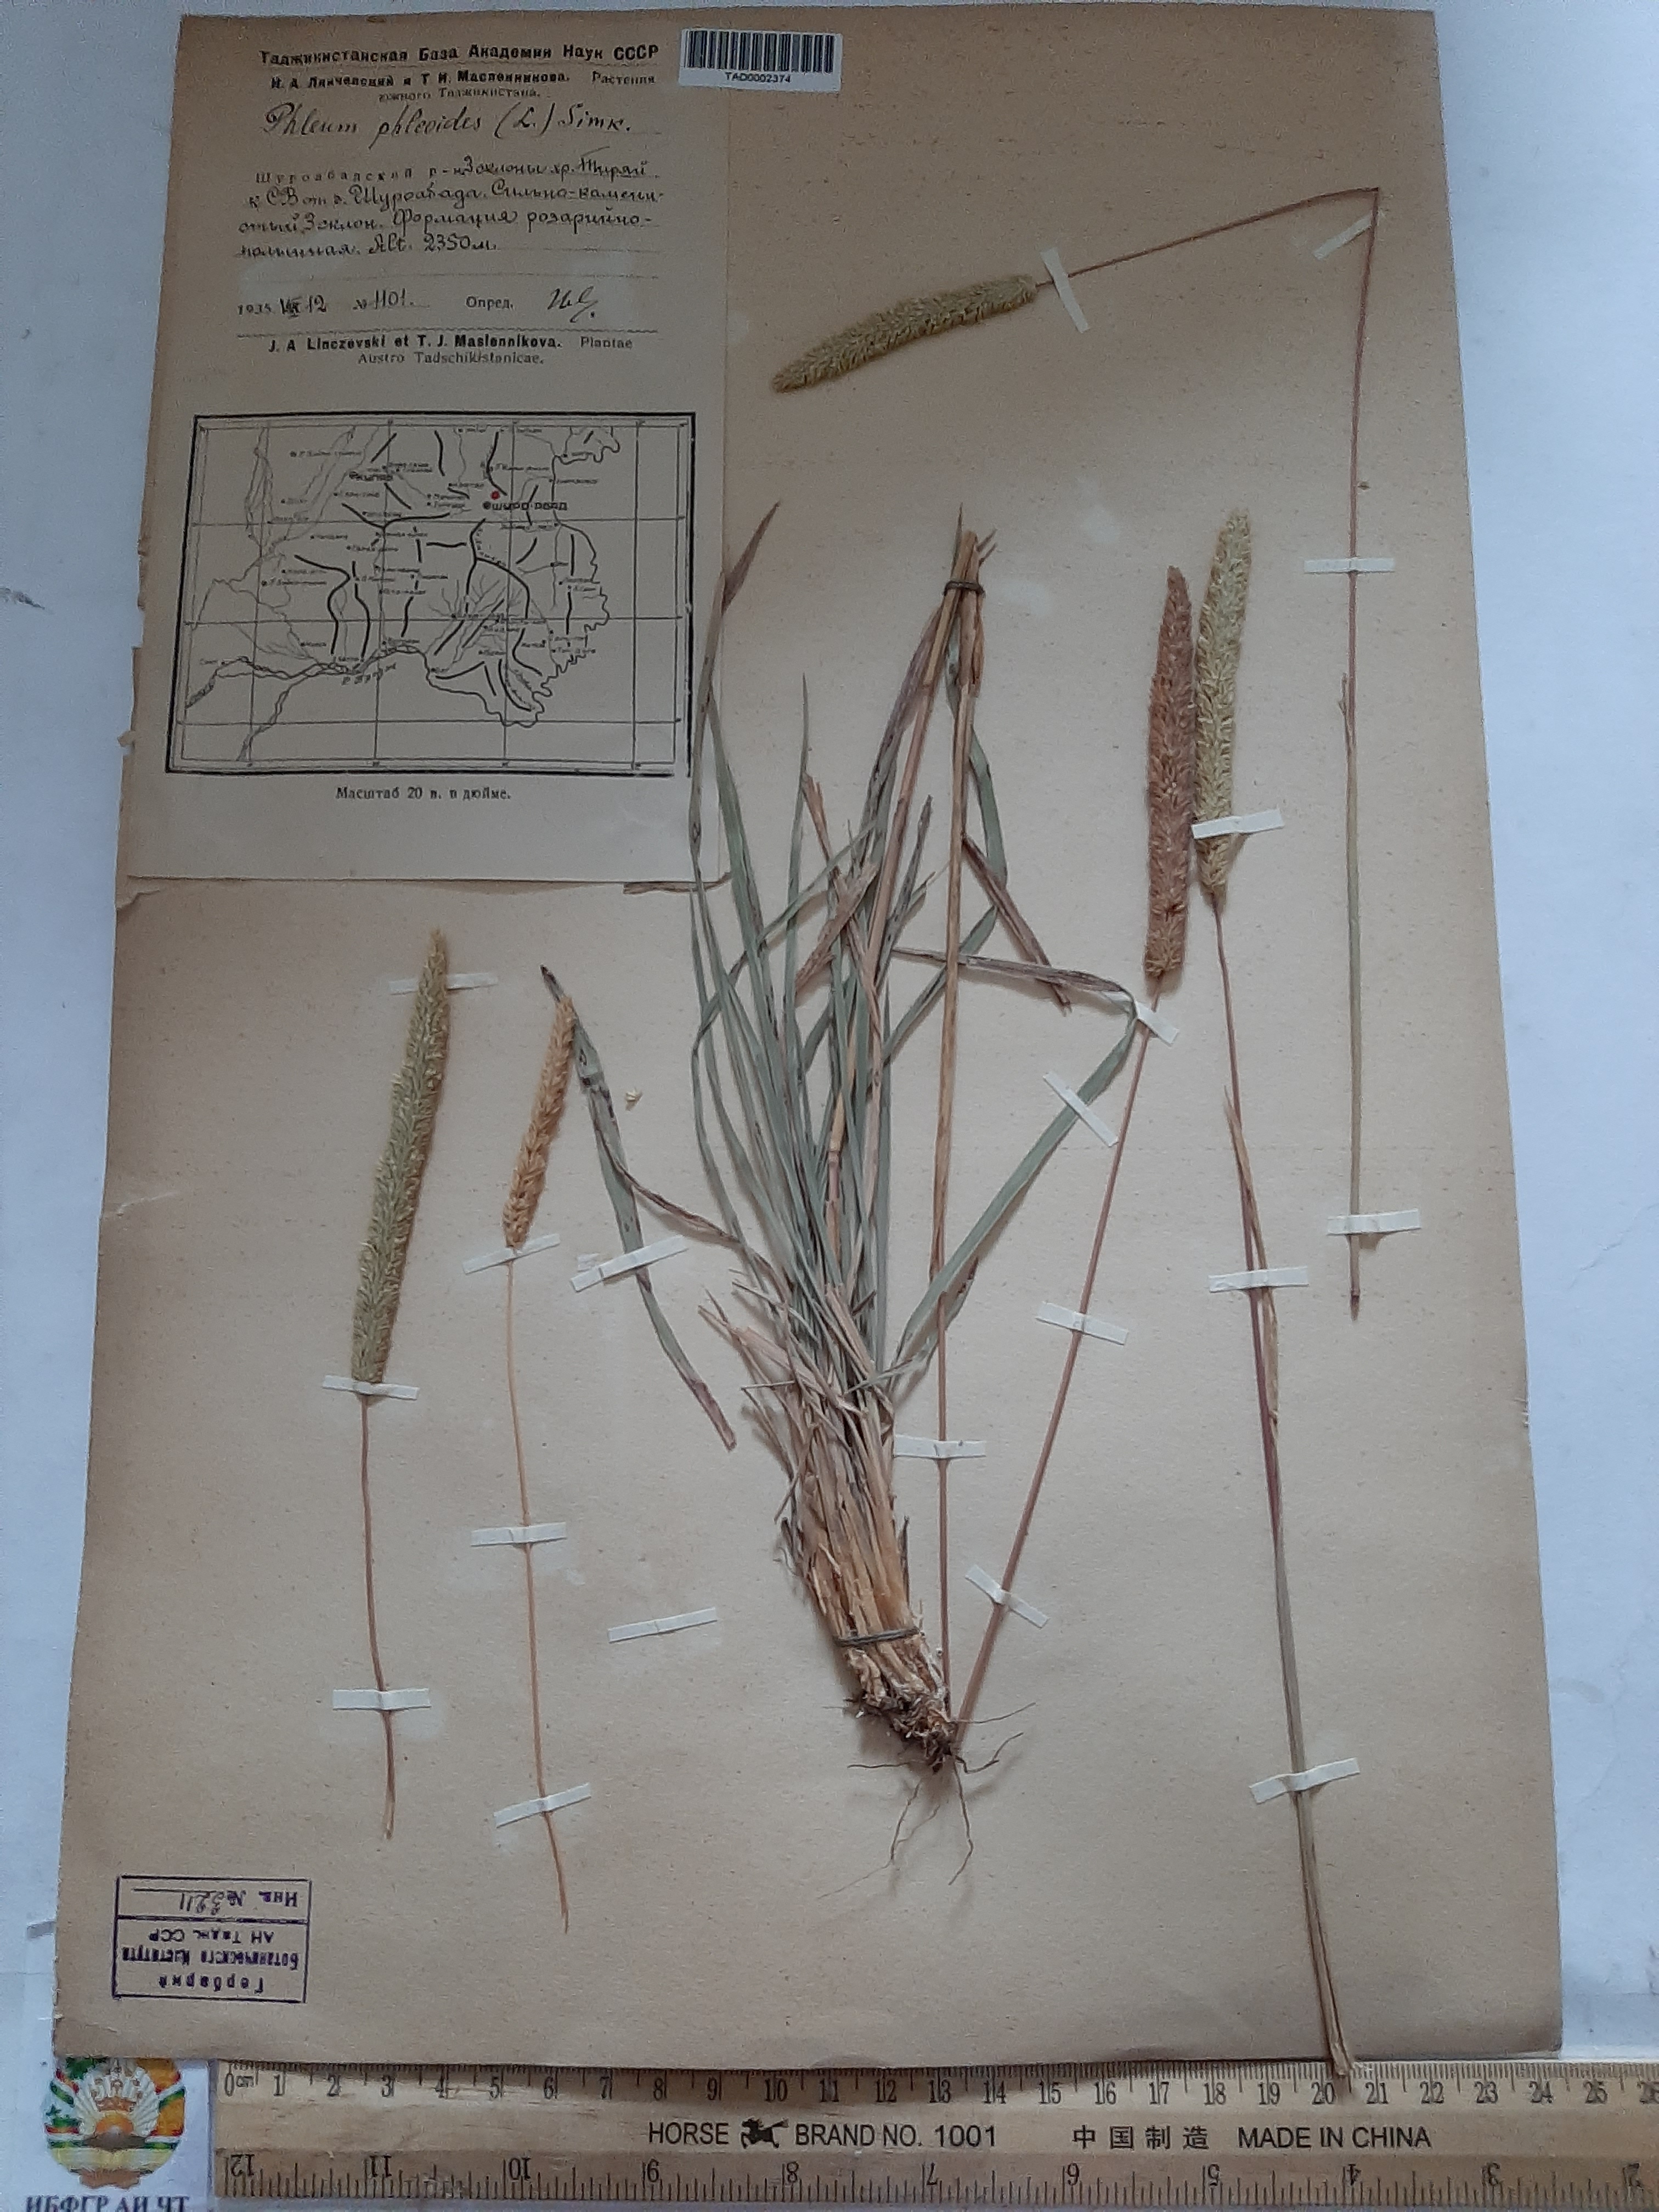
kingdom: Plantae
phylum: Tracheophyta
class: Liliopsida
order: Poales
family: Poaceae
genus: Phleum
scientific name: Phleum phleoides
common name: Purple-stem cat's-tail
